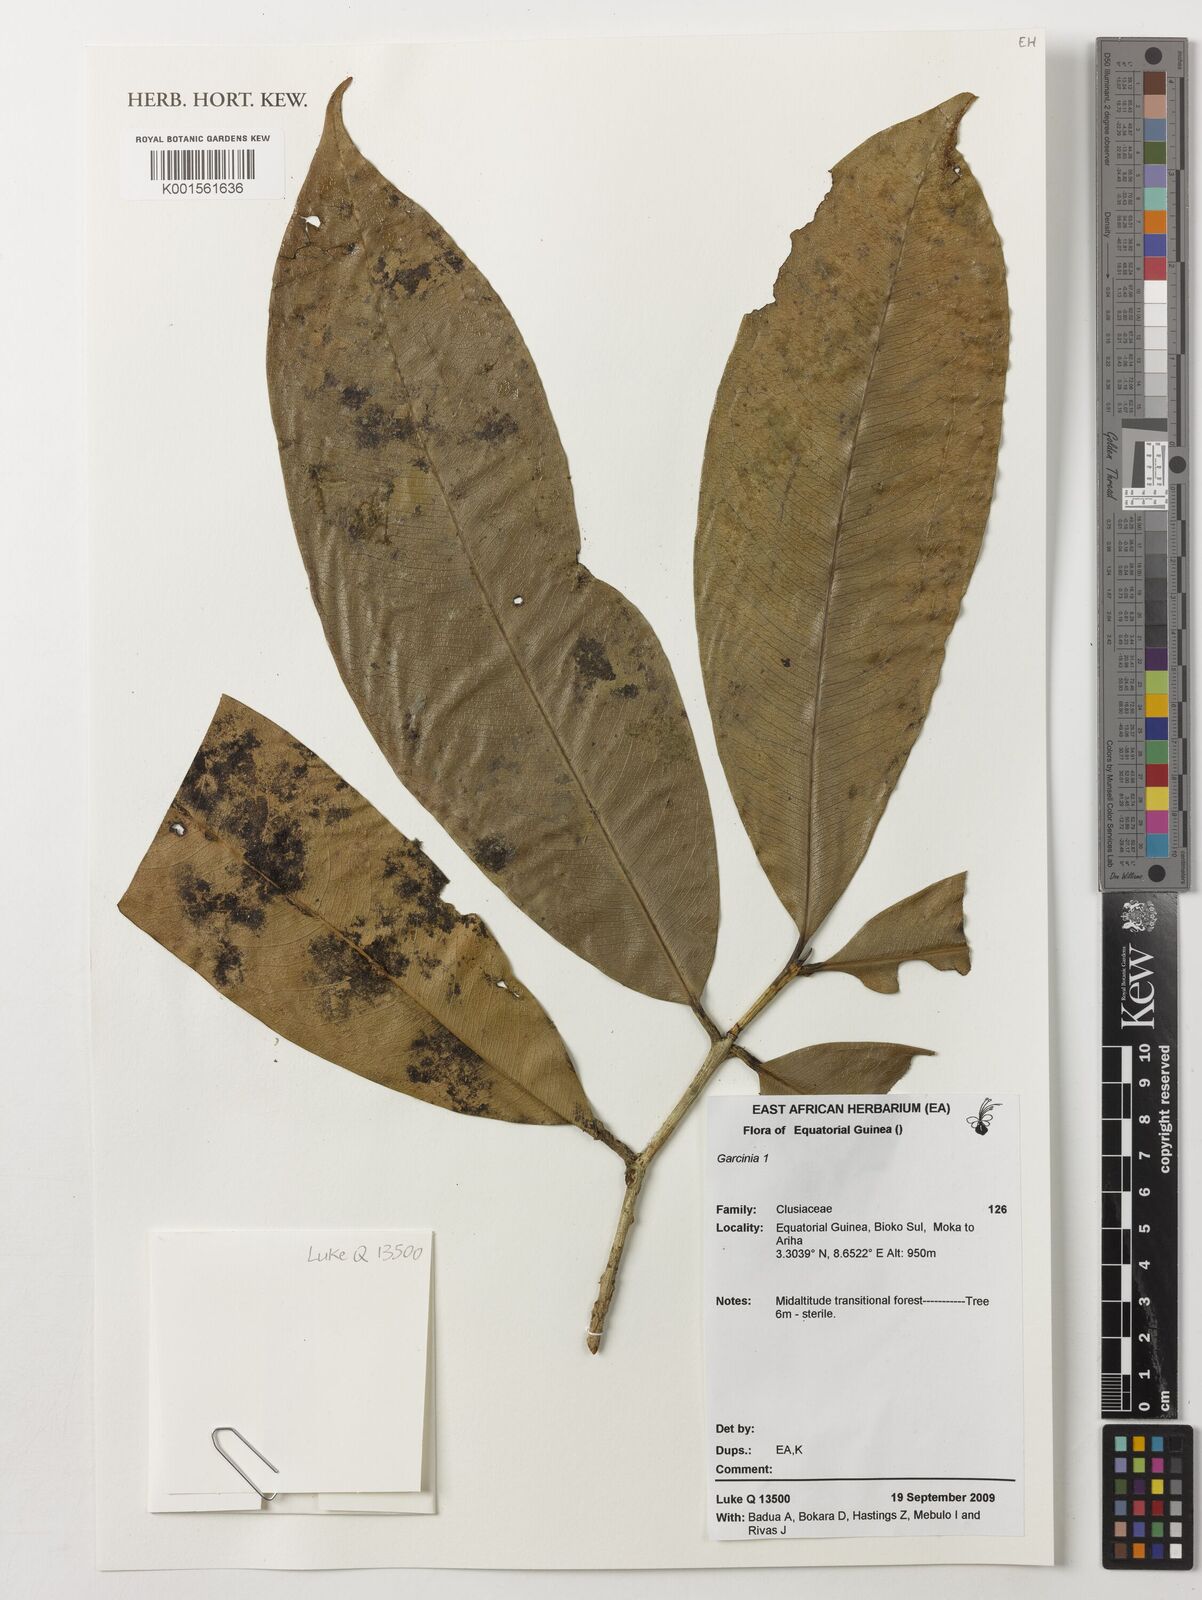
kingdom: Plantae
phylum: Tracheophyta
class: Magnoliopsida
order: Malpighiales
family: Clusiaceae
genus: Garcinia
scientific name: Garcinia
